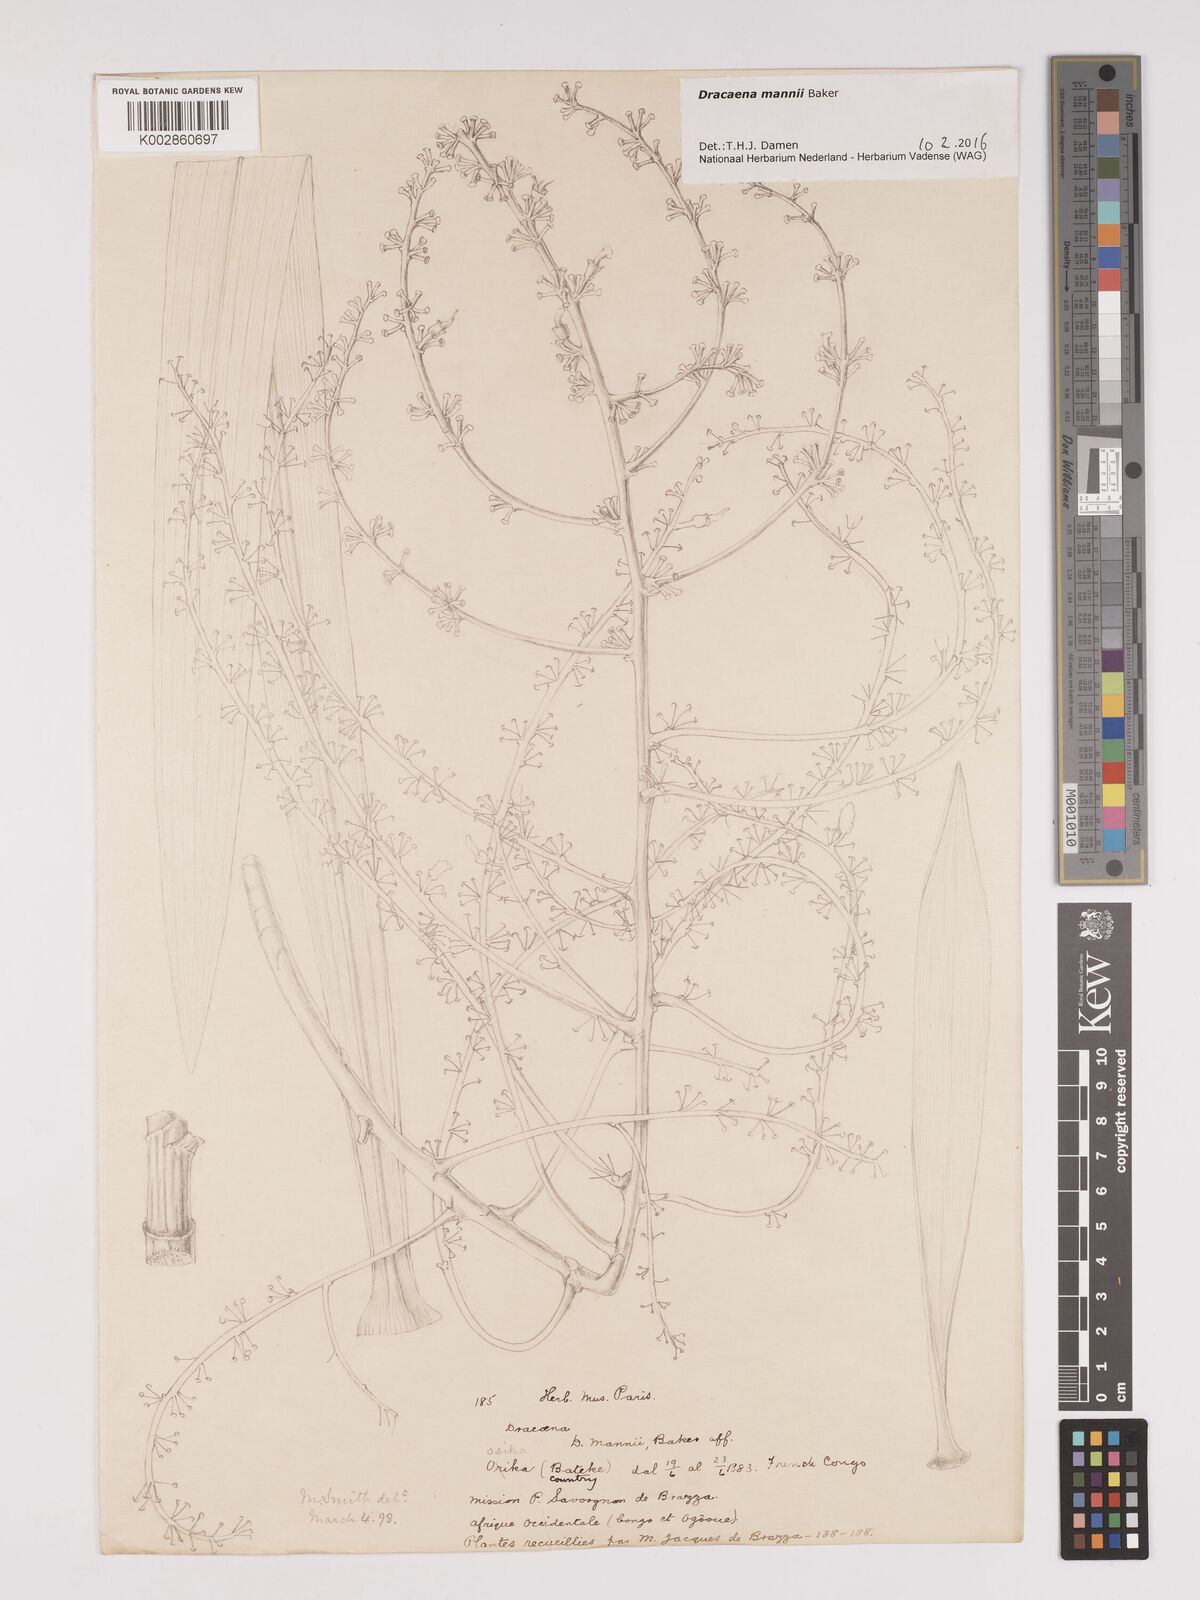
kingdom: Plantae
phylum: Tracheophyta
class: Liliopsida
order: Asparagales
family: Asparagaceae
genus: Dracaena
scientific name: Dracaena mannii
